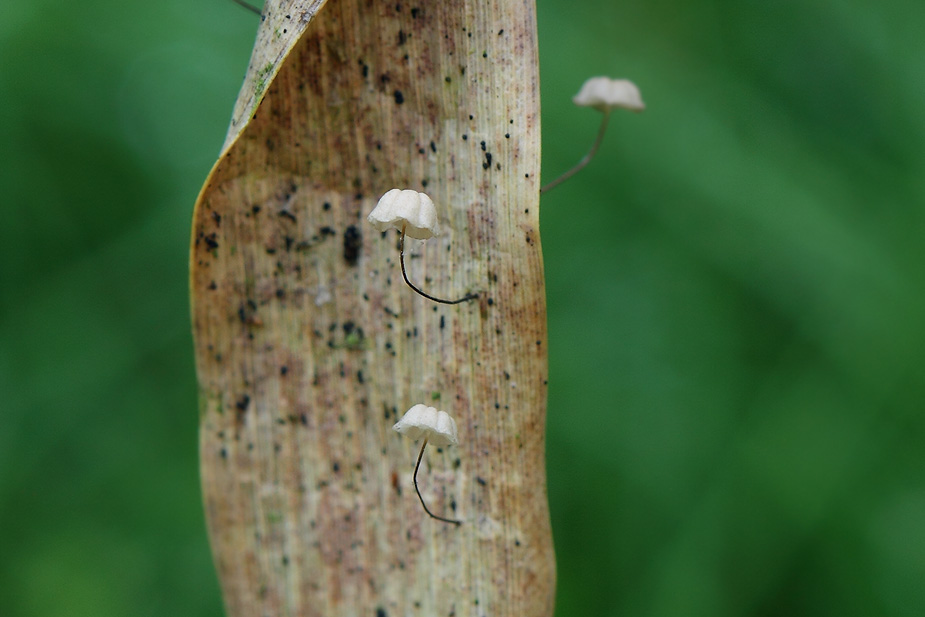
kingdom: Fungi
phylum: Basidiomycota
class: Agaricomycetes
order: Agaricales
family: Marasmiaceae
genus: Marasmius
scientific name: Marasmius limosus
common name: kær-bruskhat
